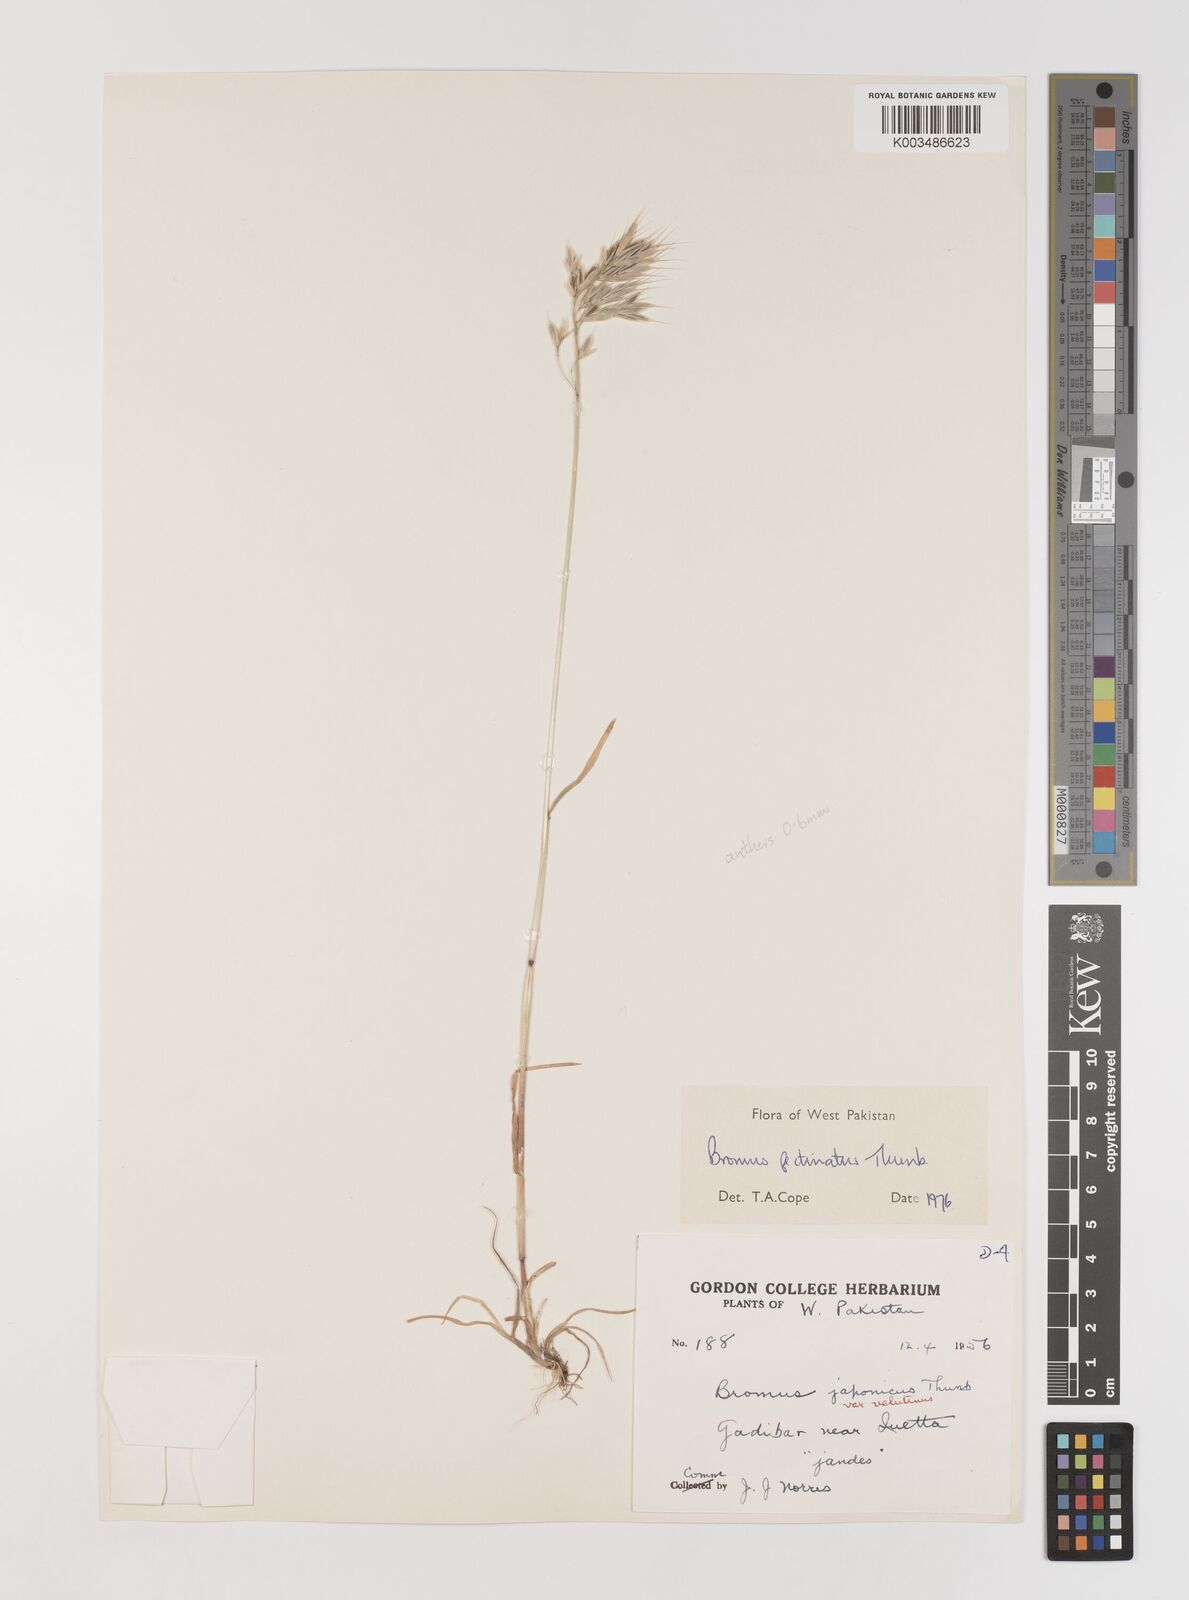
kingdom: Plantae
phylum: Tracheophyta
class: Liliopsida
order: Poales
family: Poaceae
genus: Bromus
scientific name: Bromus pectinatus
